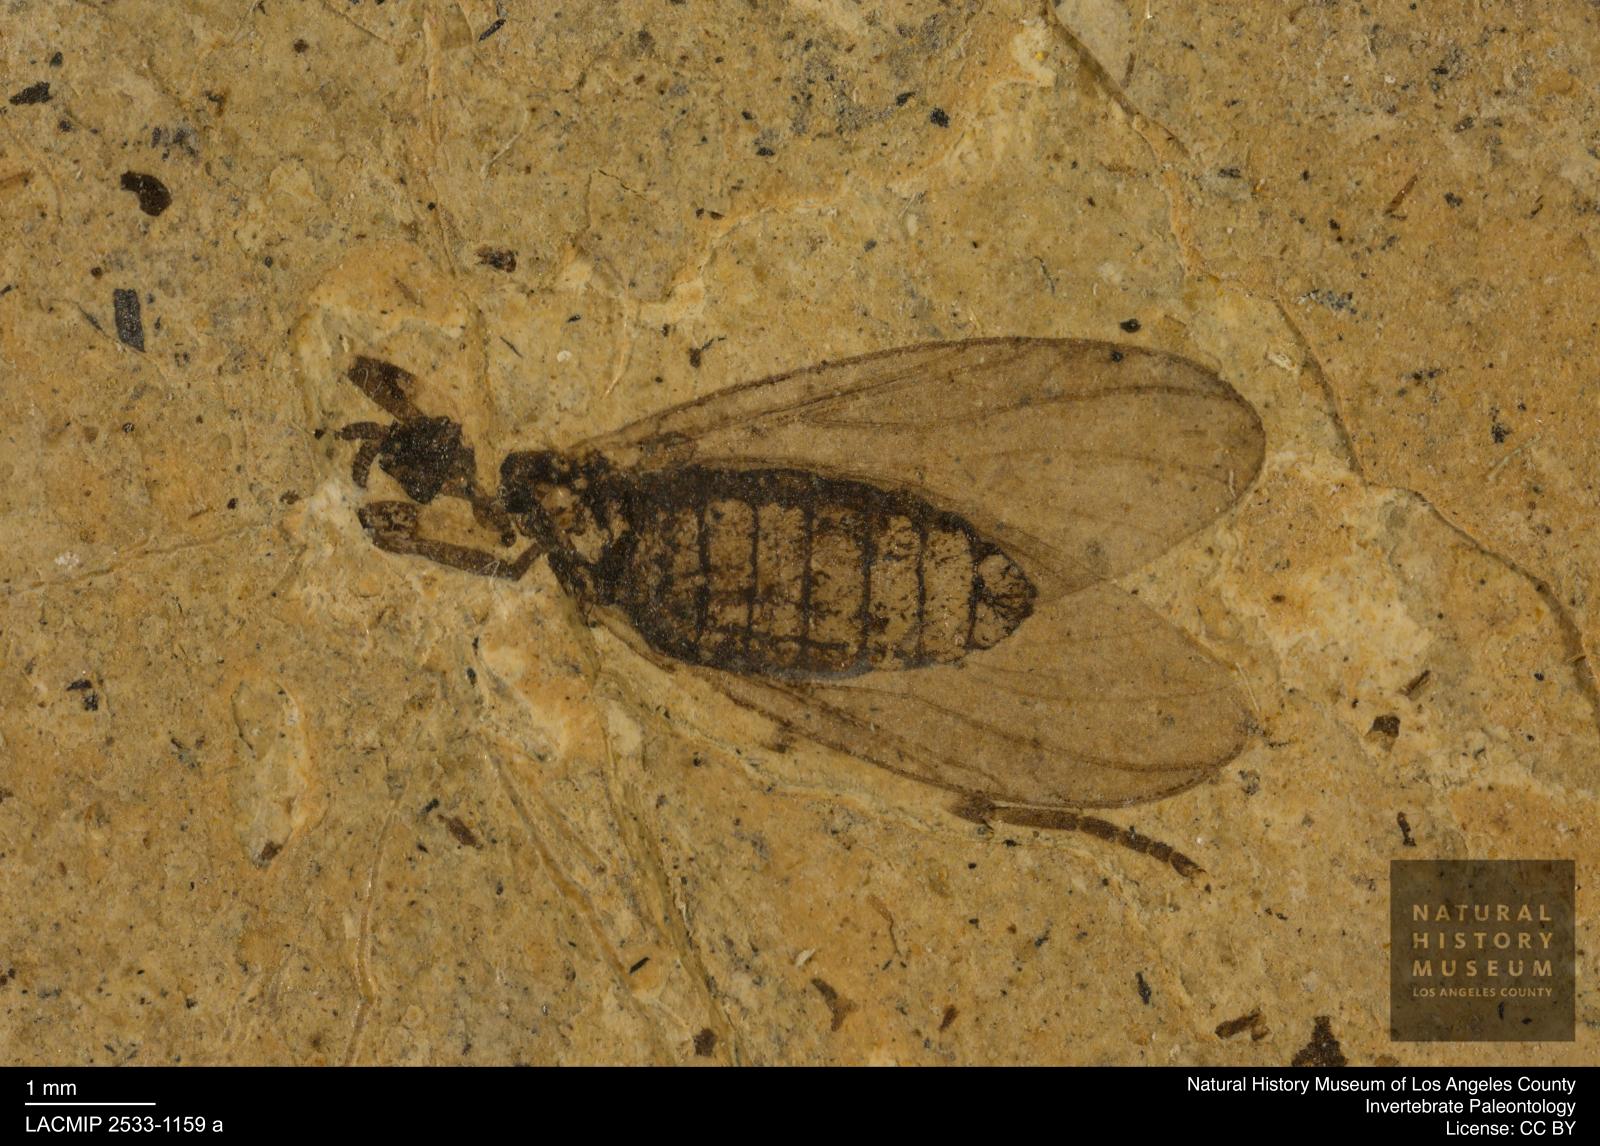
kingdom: Animalia
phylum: Arthropoda
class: Insecta
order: Diptera
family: Bibionidae
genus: Plecia
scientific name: Plecia stygia
